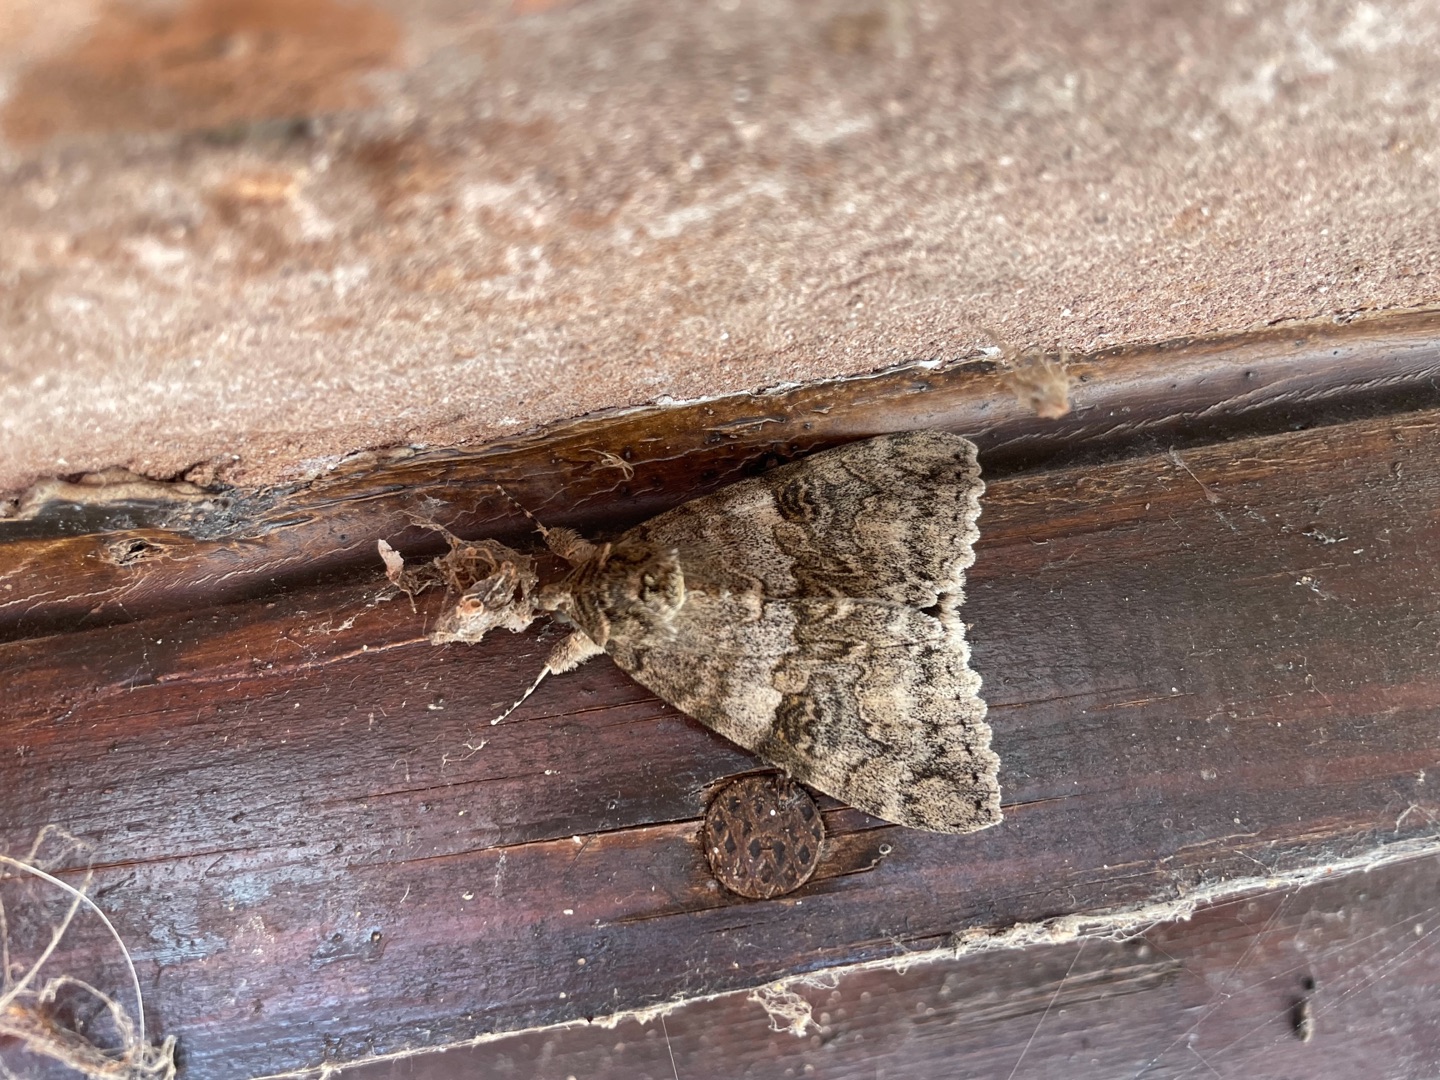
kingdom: Animalia
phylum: Arthropoda
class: Insecta
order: Lepidoptera
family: Erebidae
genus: Catocala
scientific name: Catocala nupta
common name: Rødt ordensbånd
